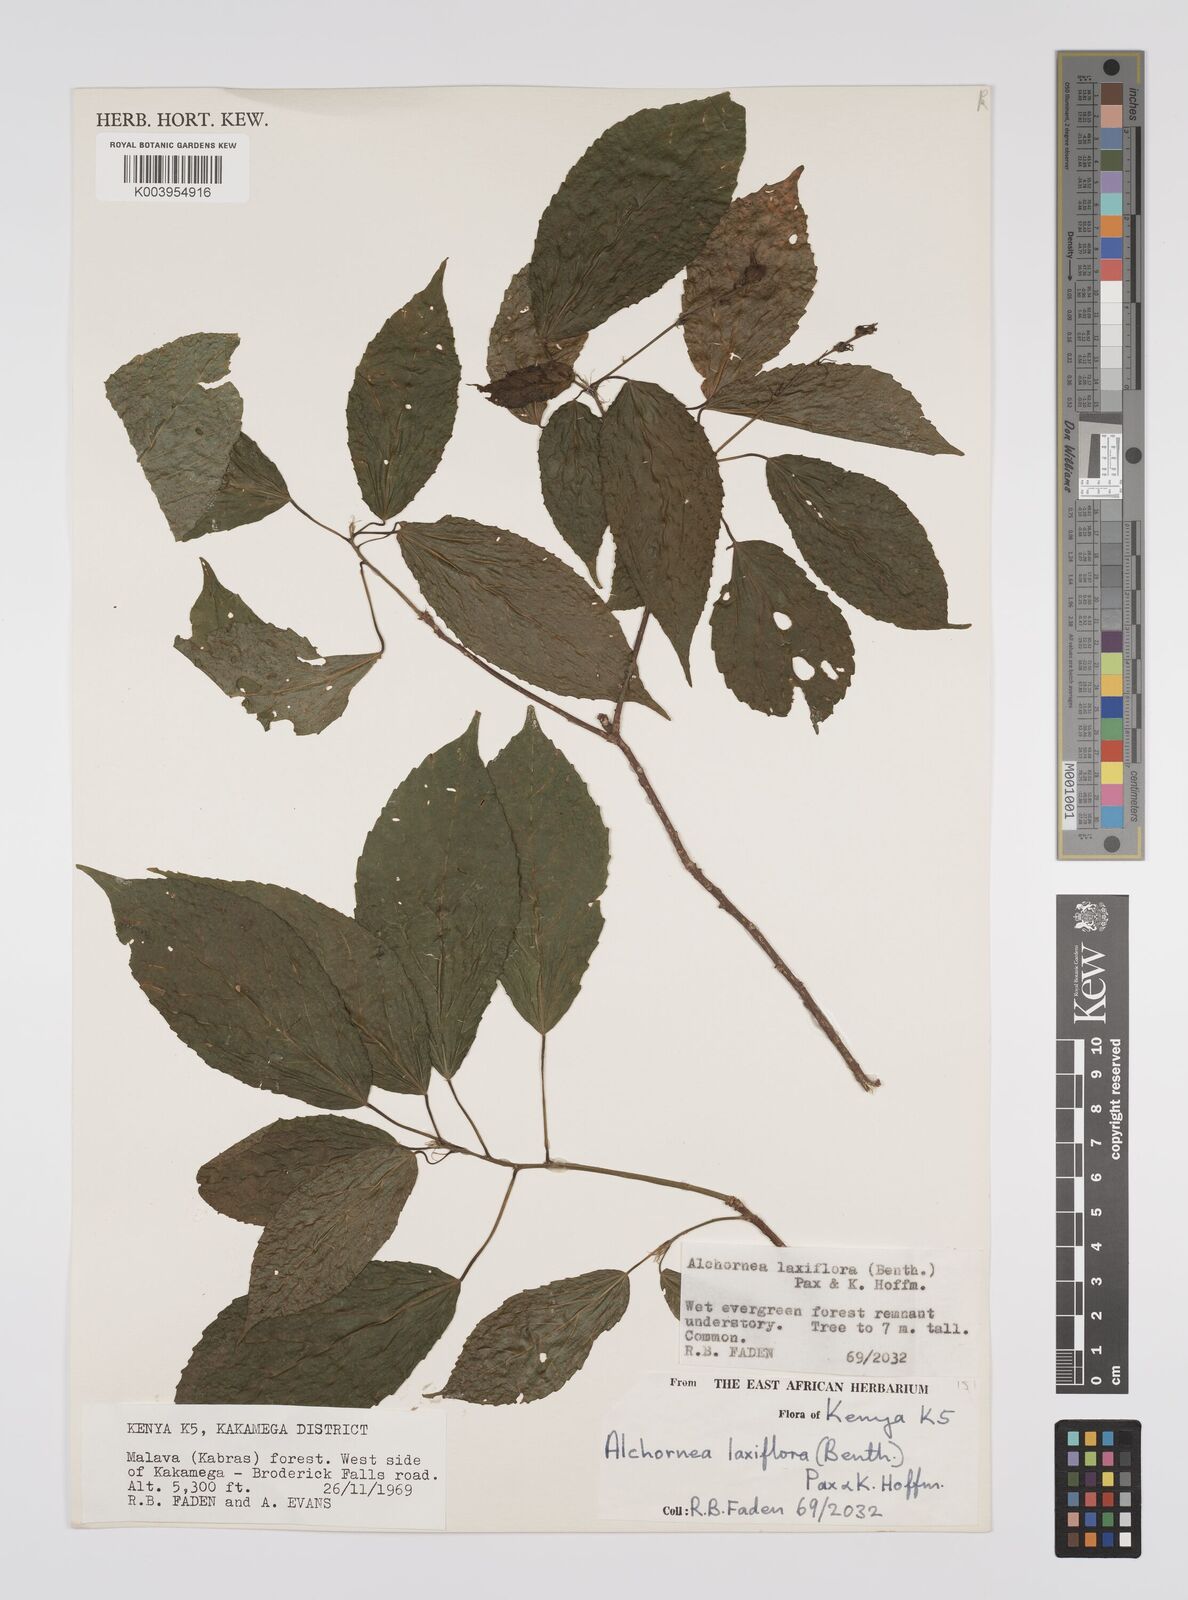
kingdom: Plantae
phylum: Tracheophyta
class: Magnoliopsida
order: Malpighiales
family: Euphorbiaceae
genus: Alchornea
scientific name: Alchornea laxiflora
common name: Lowveld bead-string
